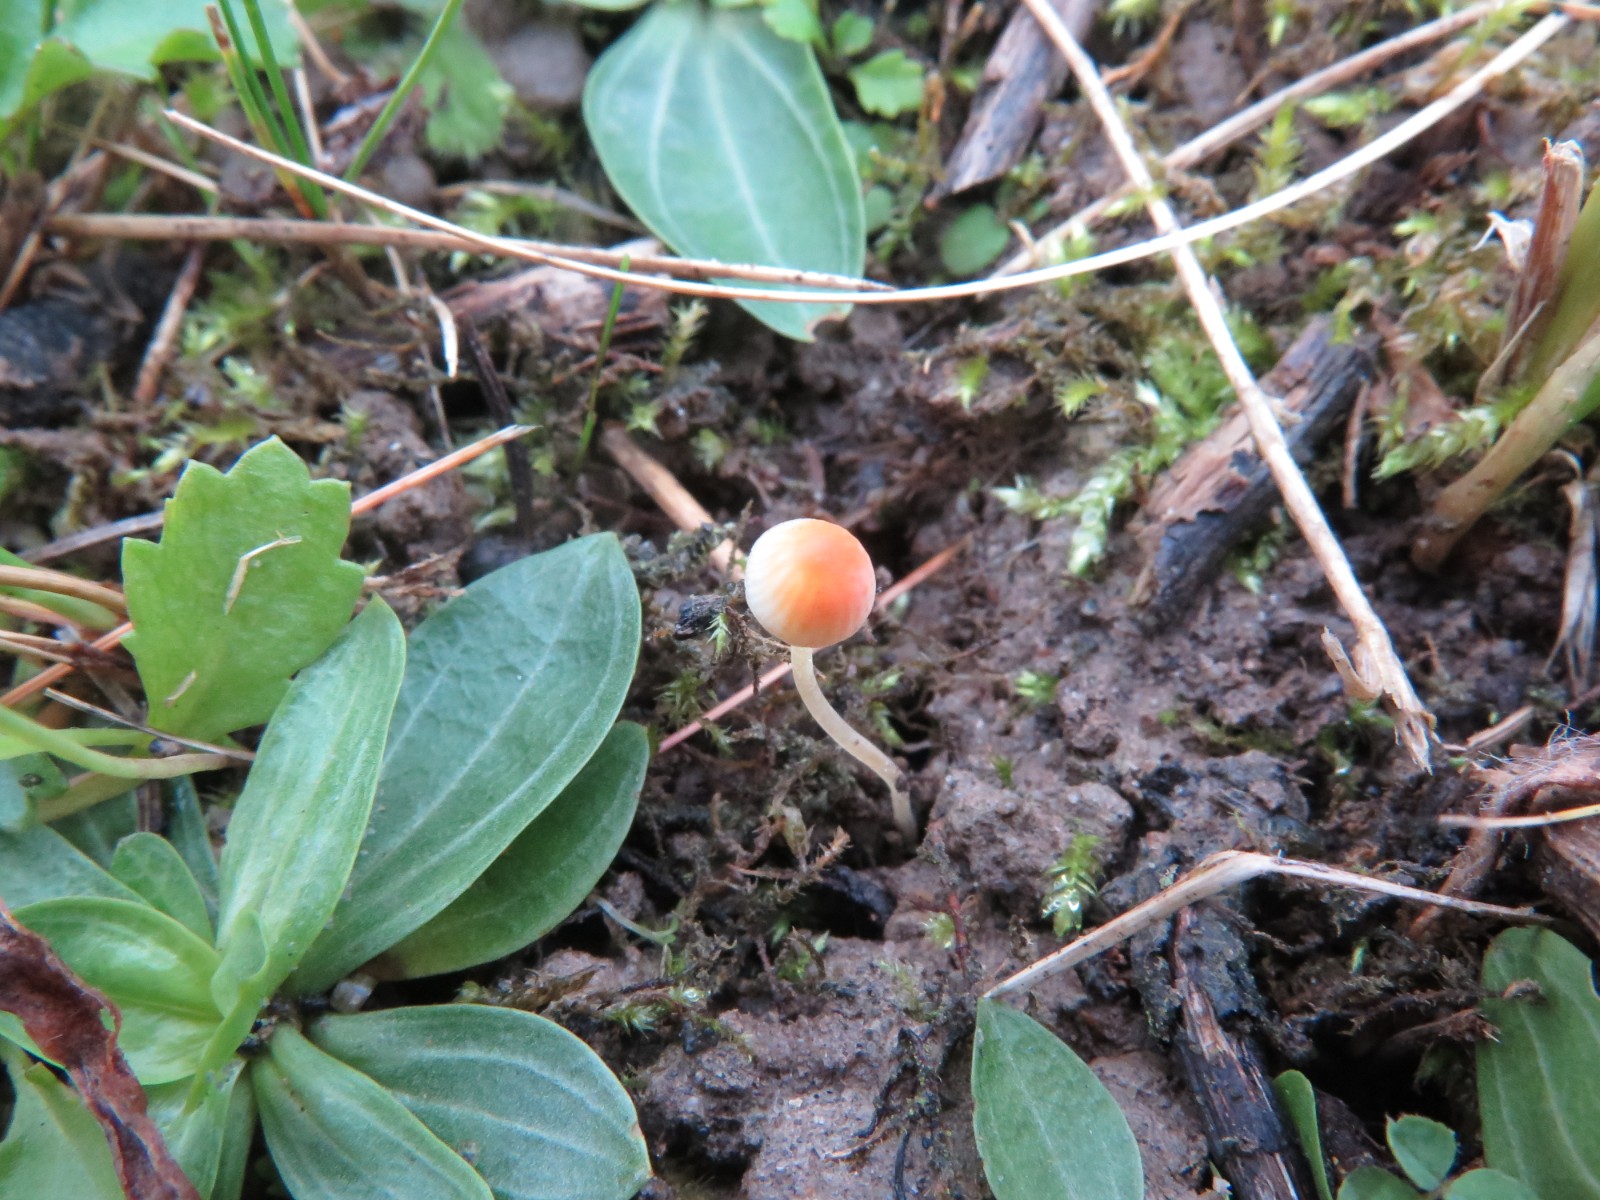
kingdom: Fungi
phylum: Basidiomycota
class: Agaricomycetes
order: Agaricales
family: Mycenaceae
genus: Mycena
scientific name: Mycena acicula
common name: orange huesvamp
